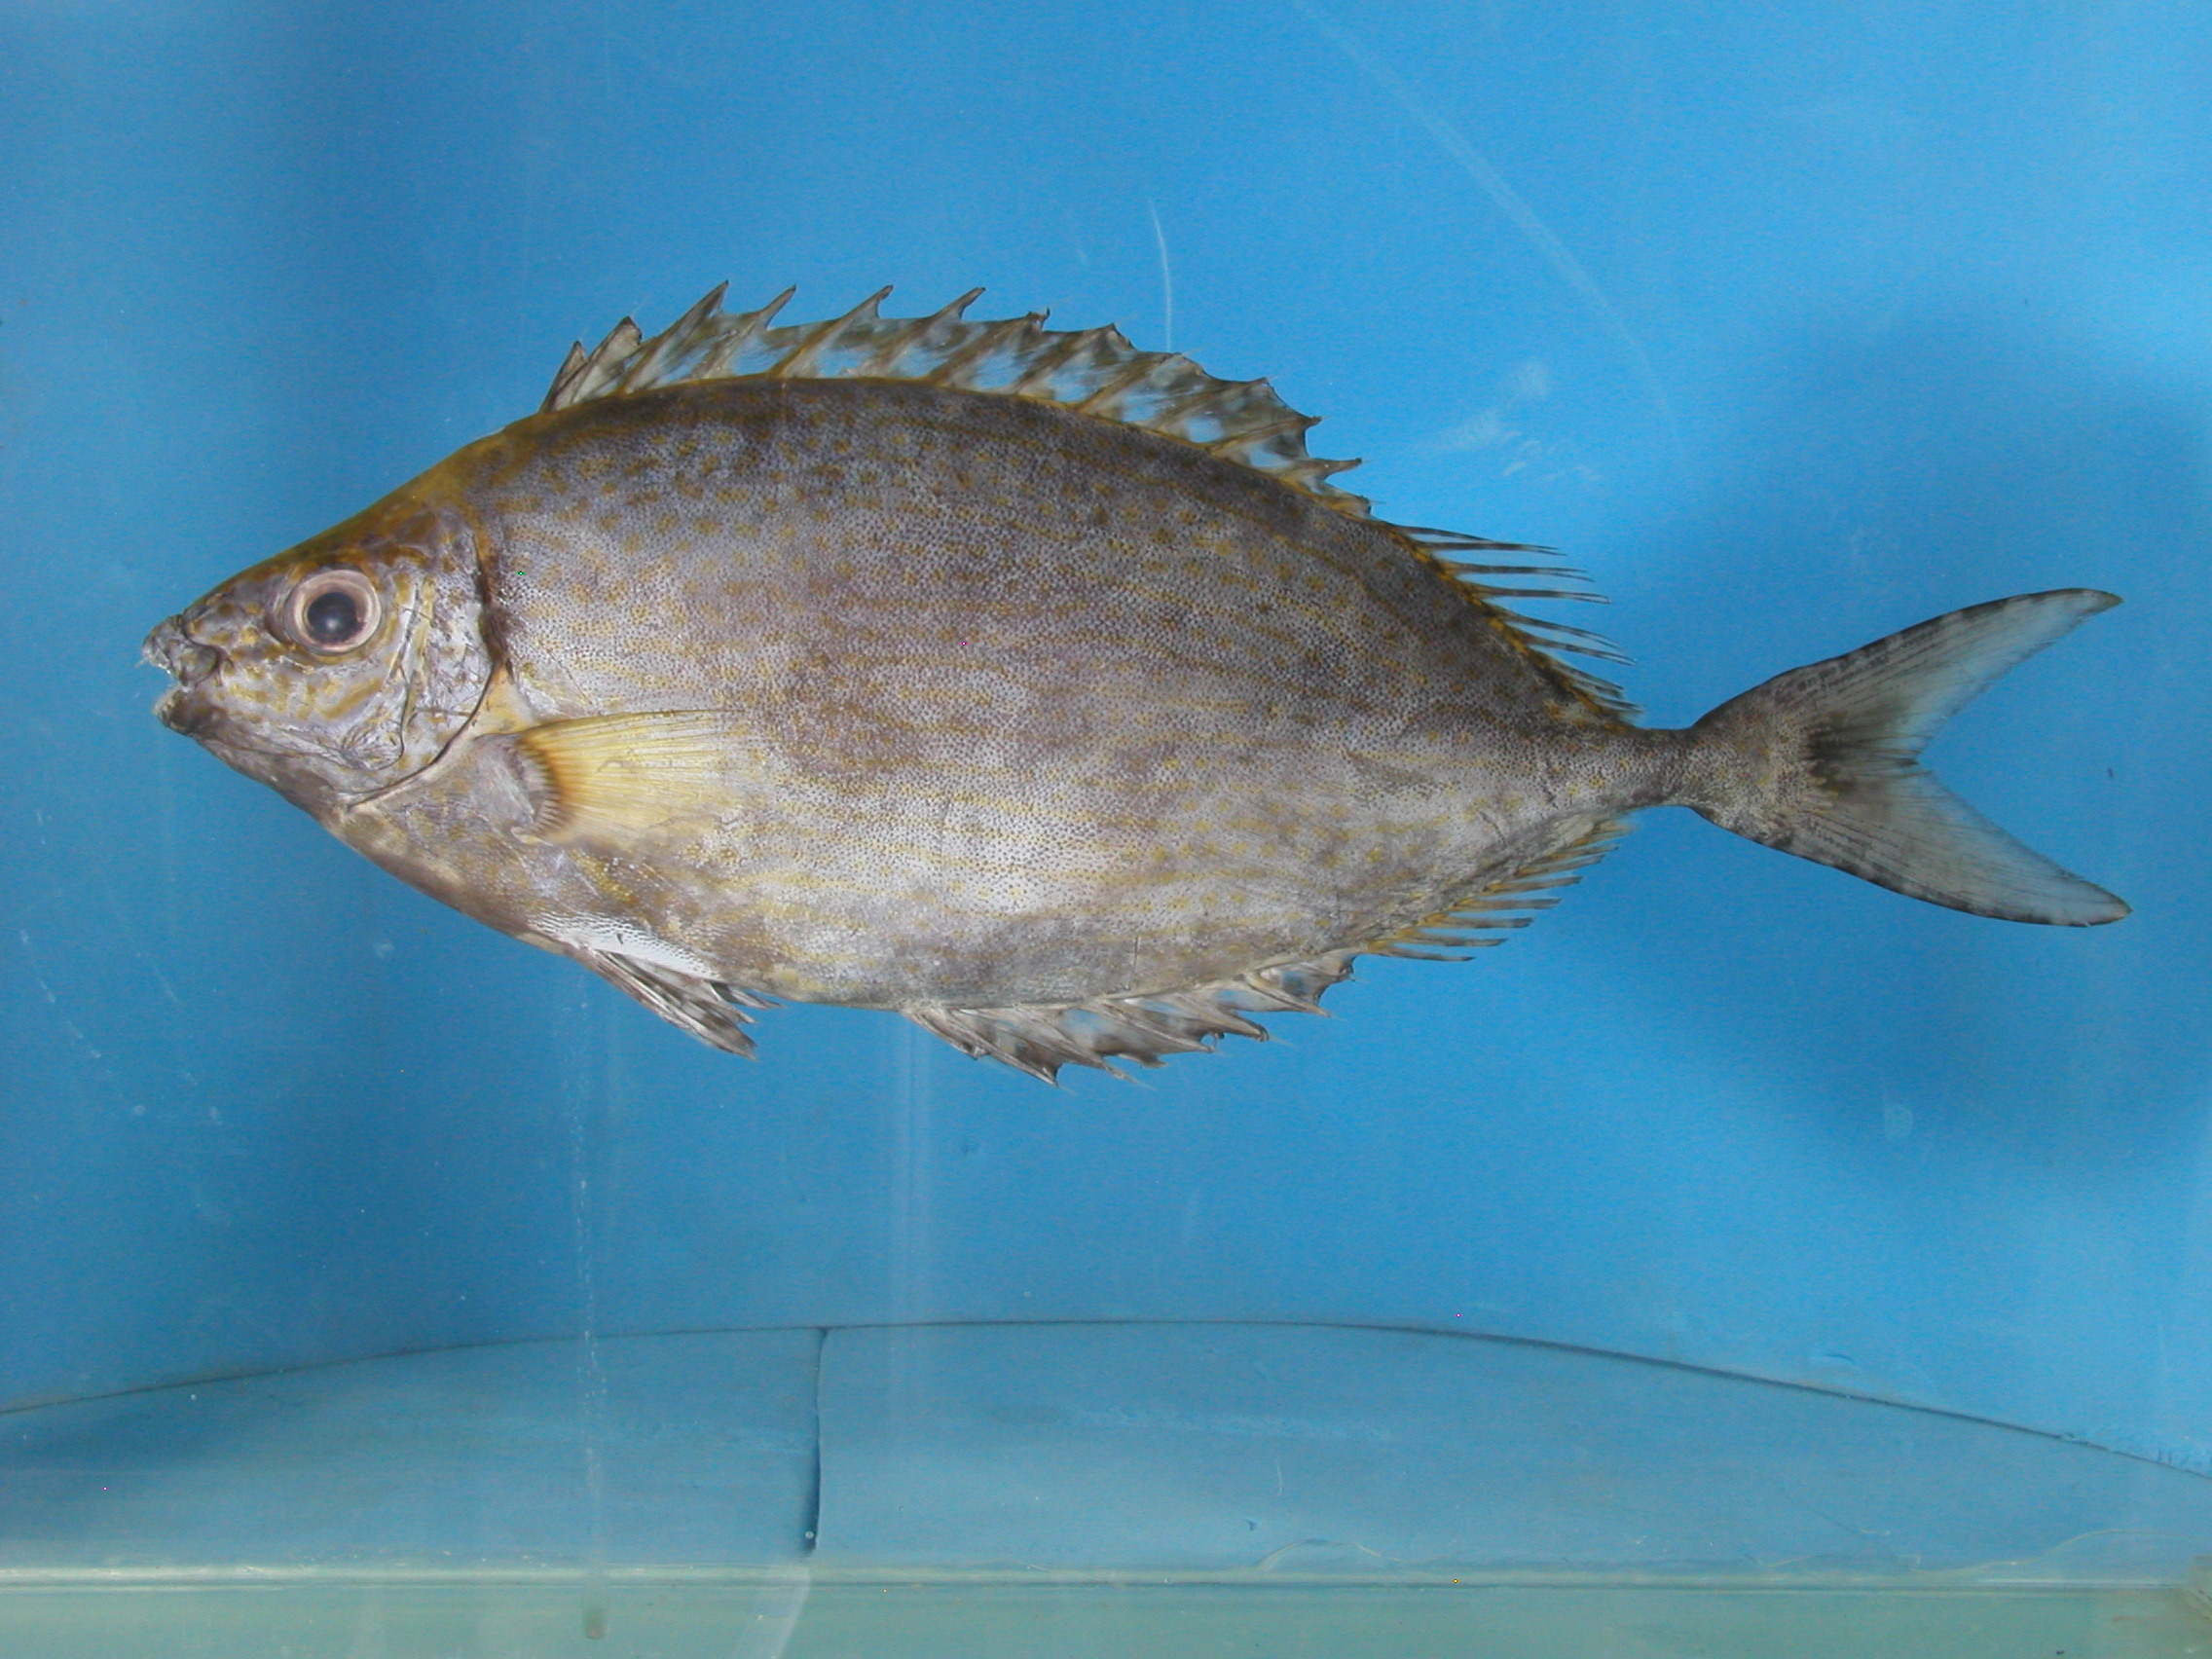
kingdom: Animalia
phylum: Chordata
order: Perciformes
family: Siganidae
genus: Siganus
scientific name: Siganus argenteus
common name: Forktail rabbitfish
